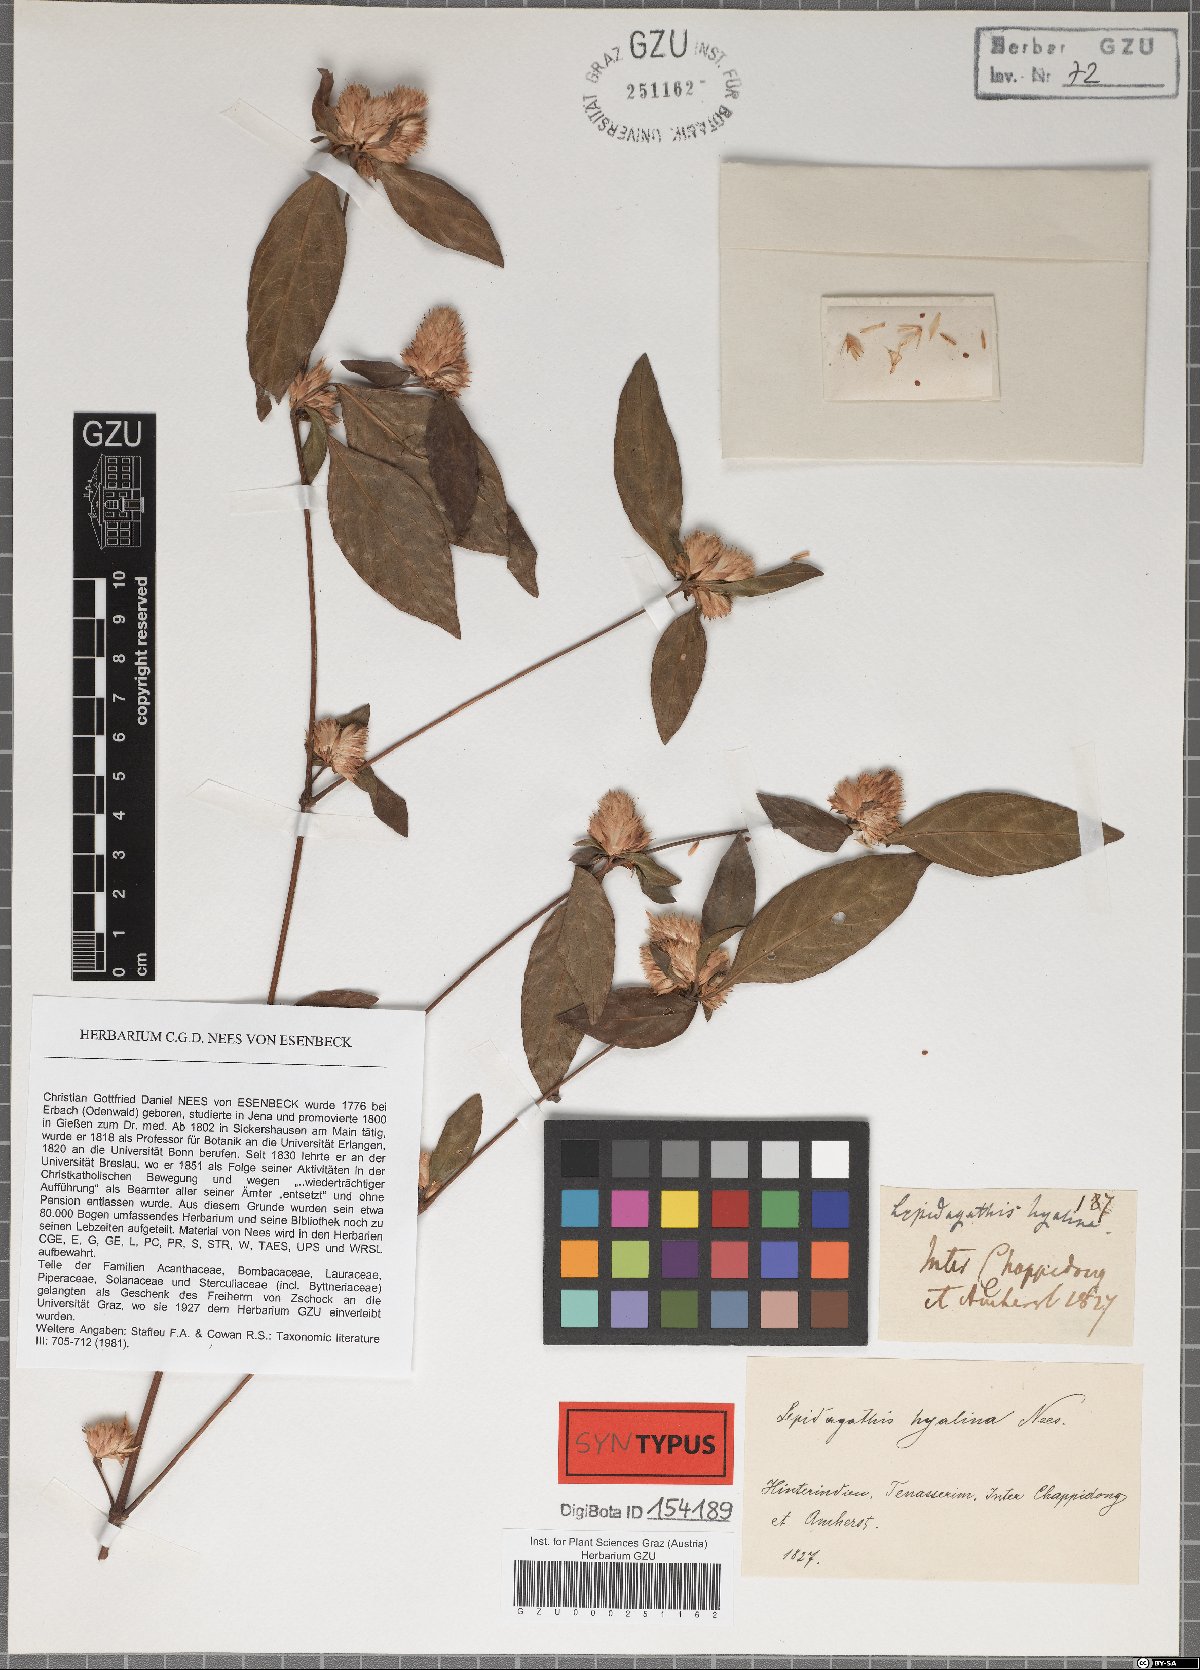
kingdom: Plantae
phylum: Tracheophyta
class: Magnoliopsida
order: Lamiales
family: Acanthaceae
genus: Lepidagathis
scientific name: Lepidagathis incurva
